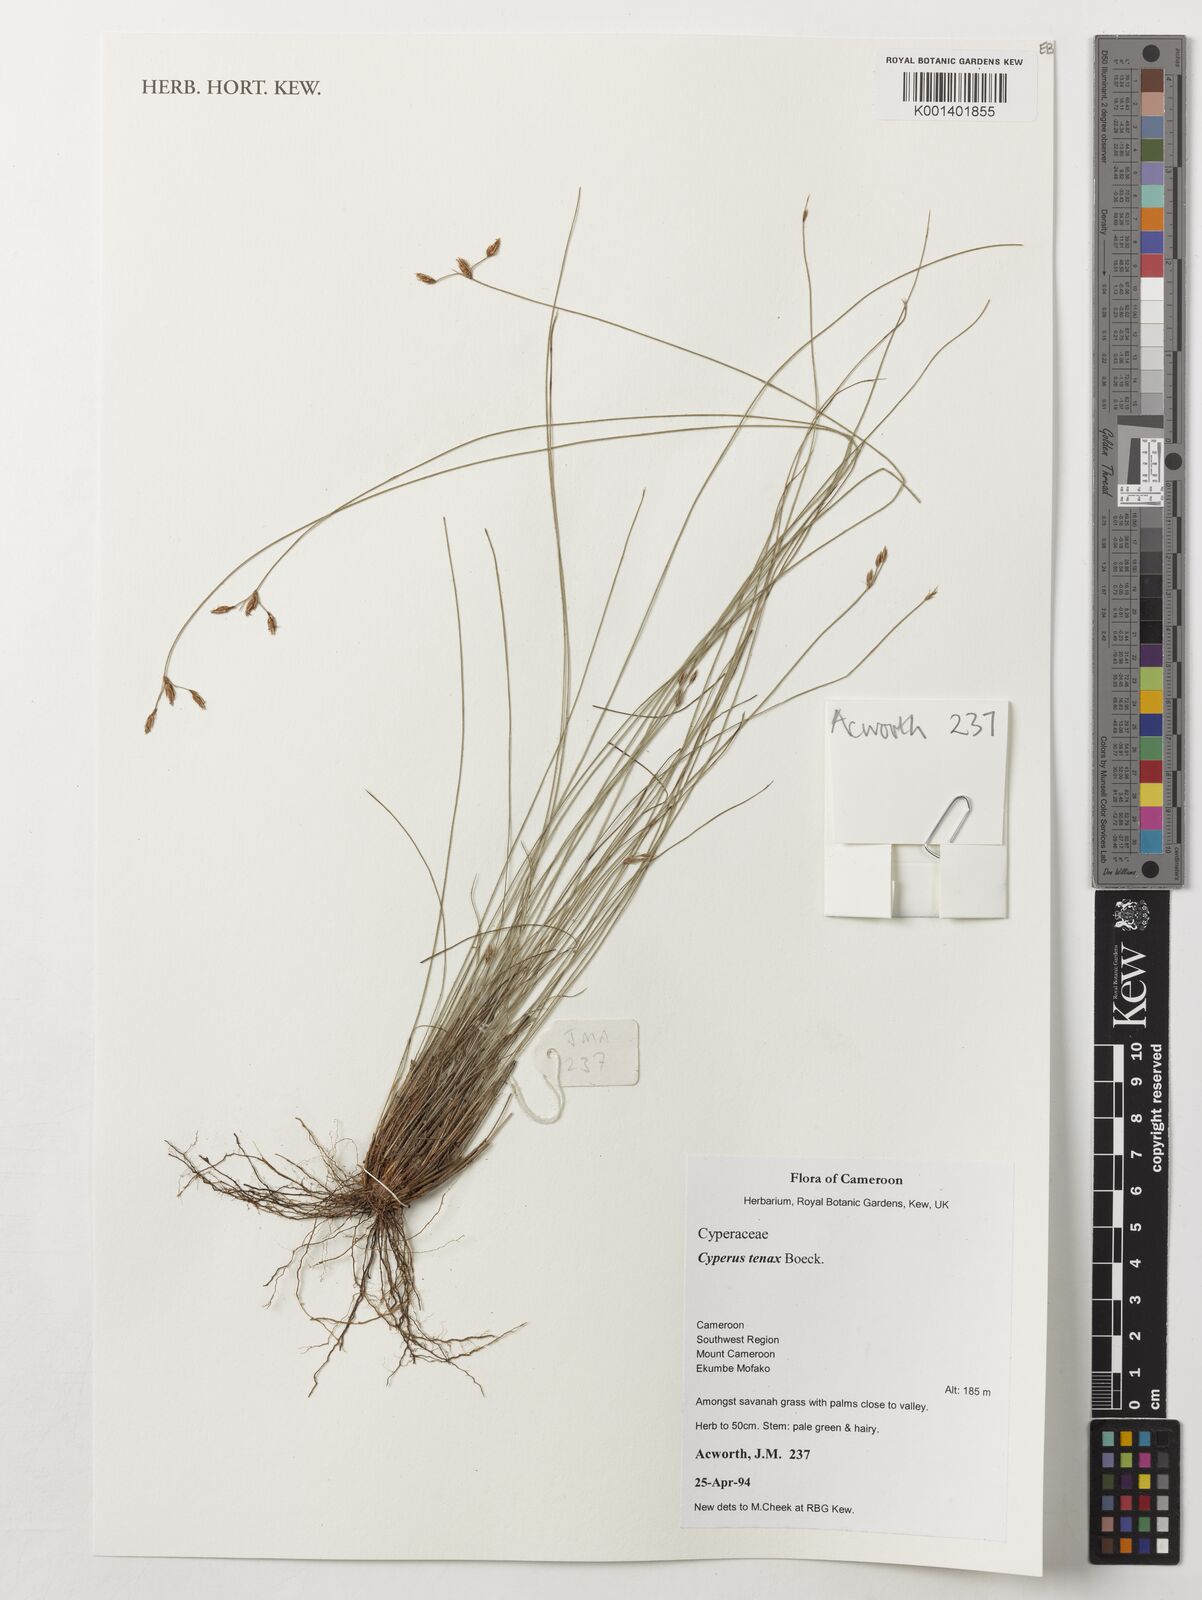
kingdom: Plantae
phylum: Tracheophyta
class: Liliopsida
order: Poales
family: Cyperaceae
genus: Cyperus
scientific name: Cyperus tenax
